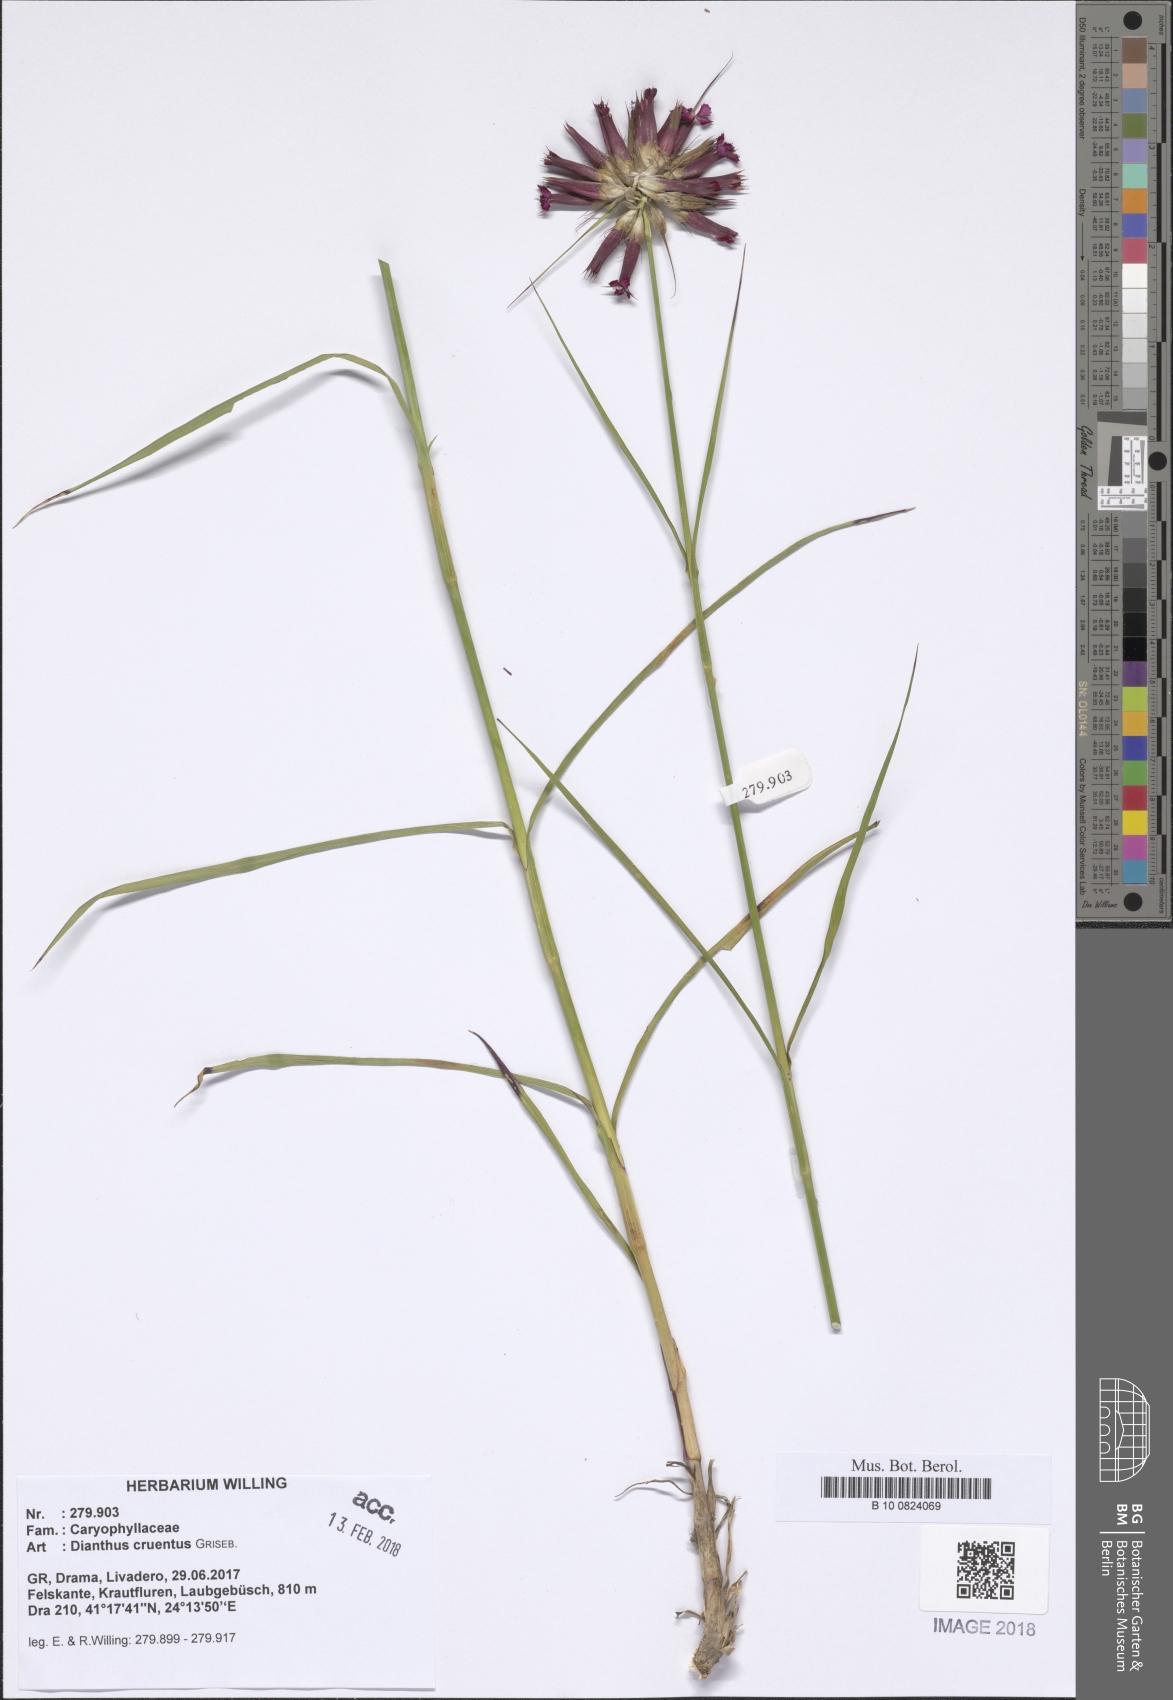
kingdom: Plantae
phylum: Tracheophyta
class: Magnoliopsida
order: Caryophyllales
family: Caryophyllaceae
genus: Dianthus
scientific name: Dianthus cruentus
